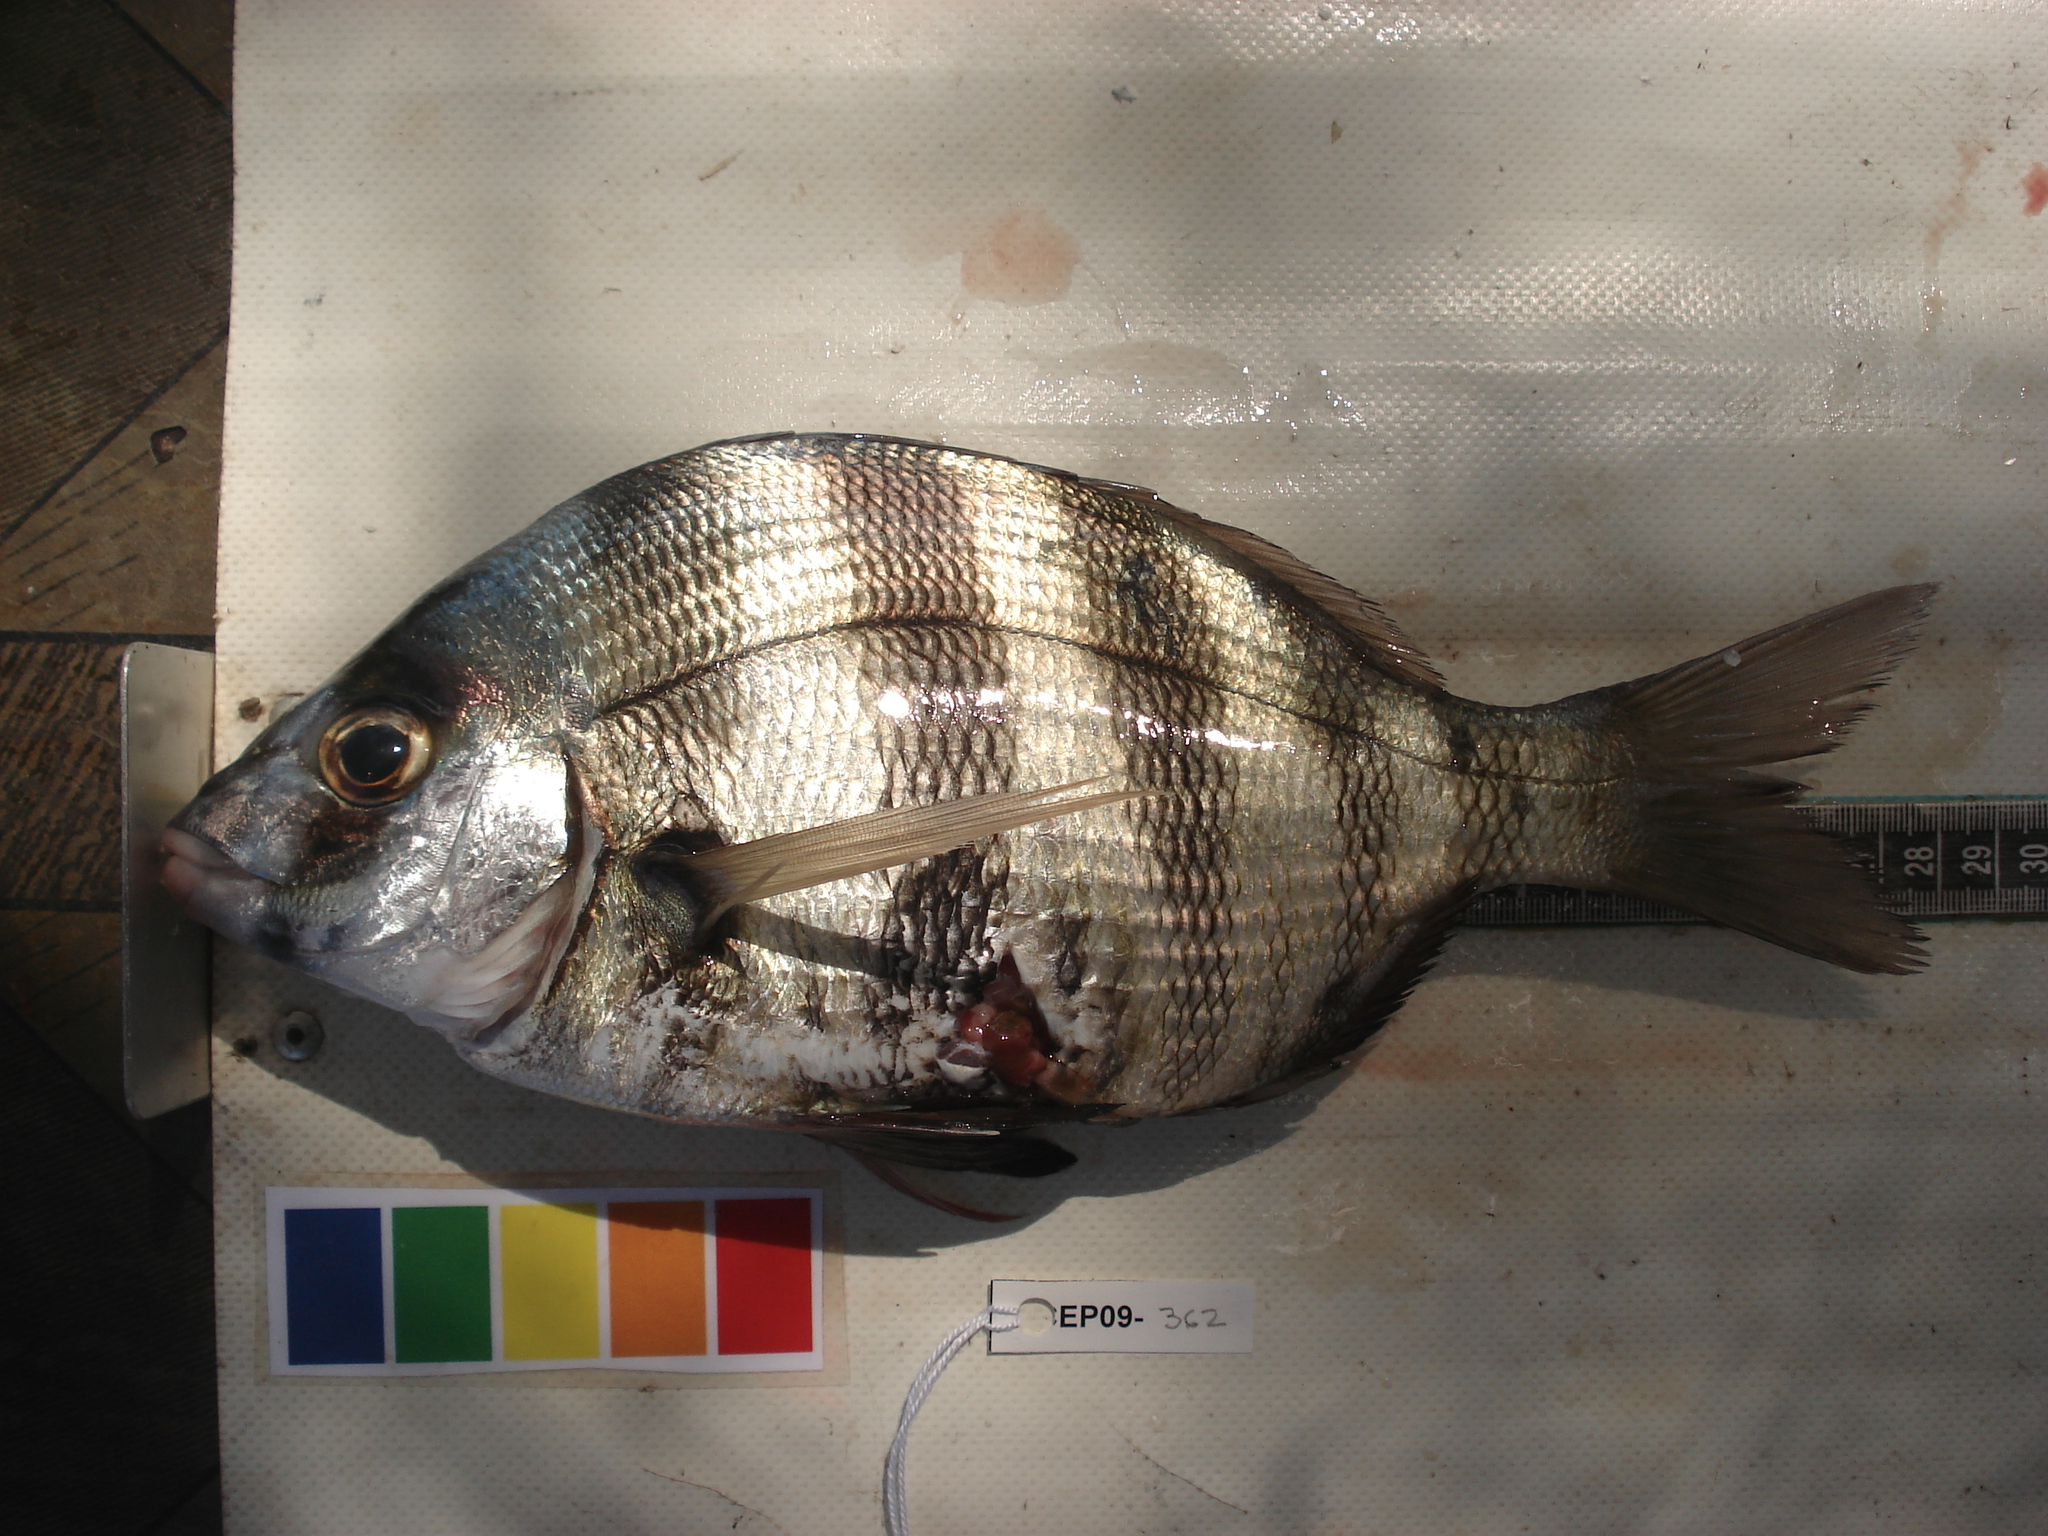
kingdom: Animalia
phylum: Chordata
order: Perciformes
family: Sparidae
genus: Diplodus
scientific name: Diplodus hottentotus
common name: Zebra
